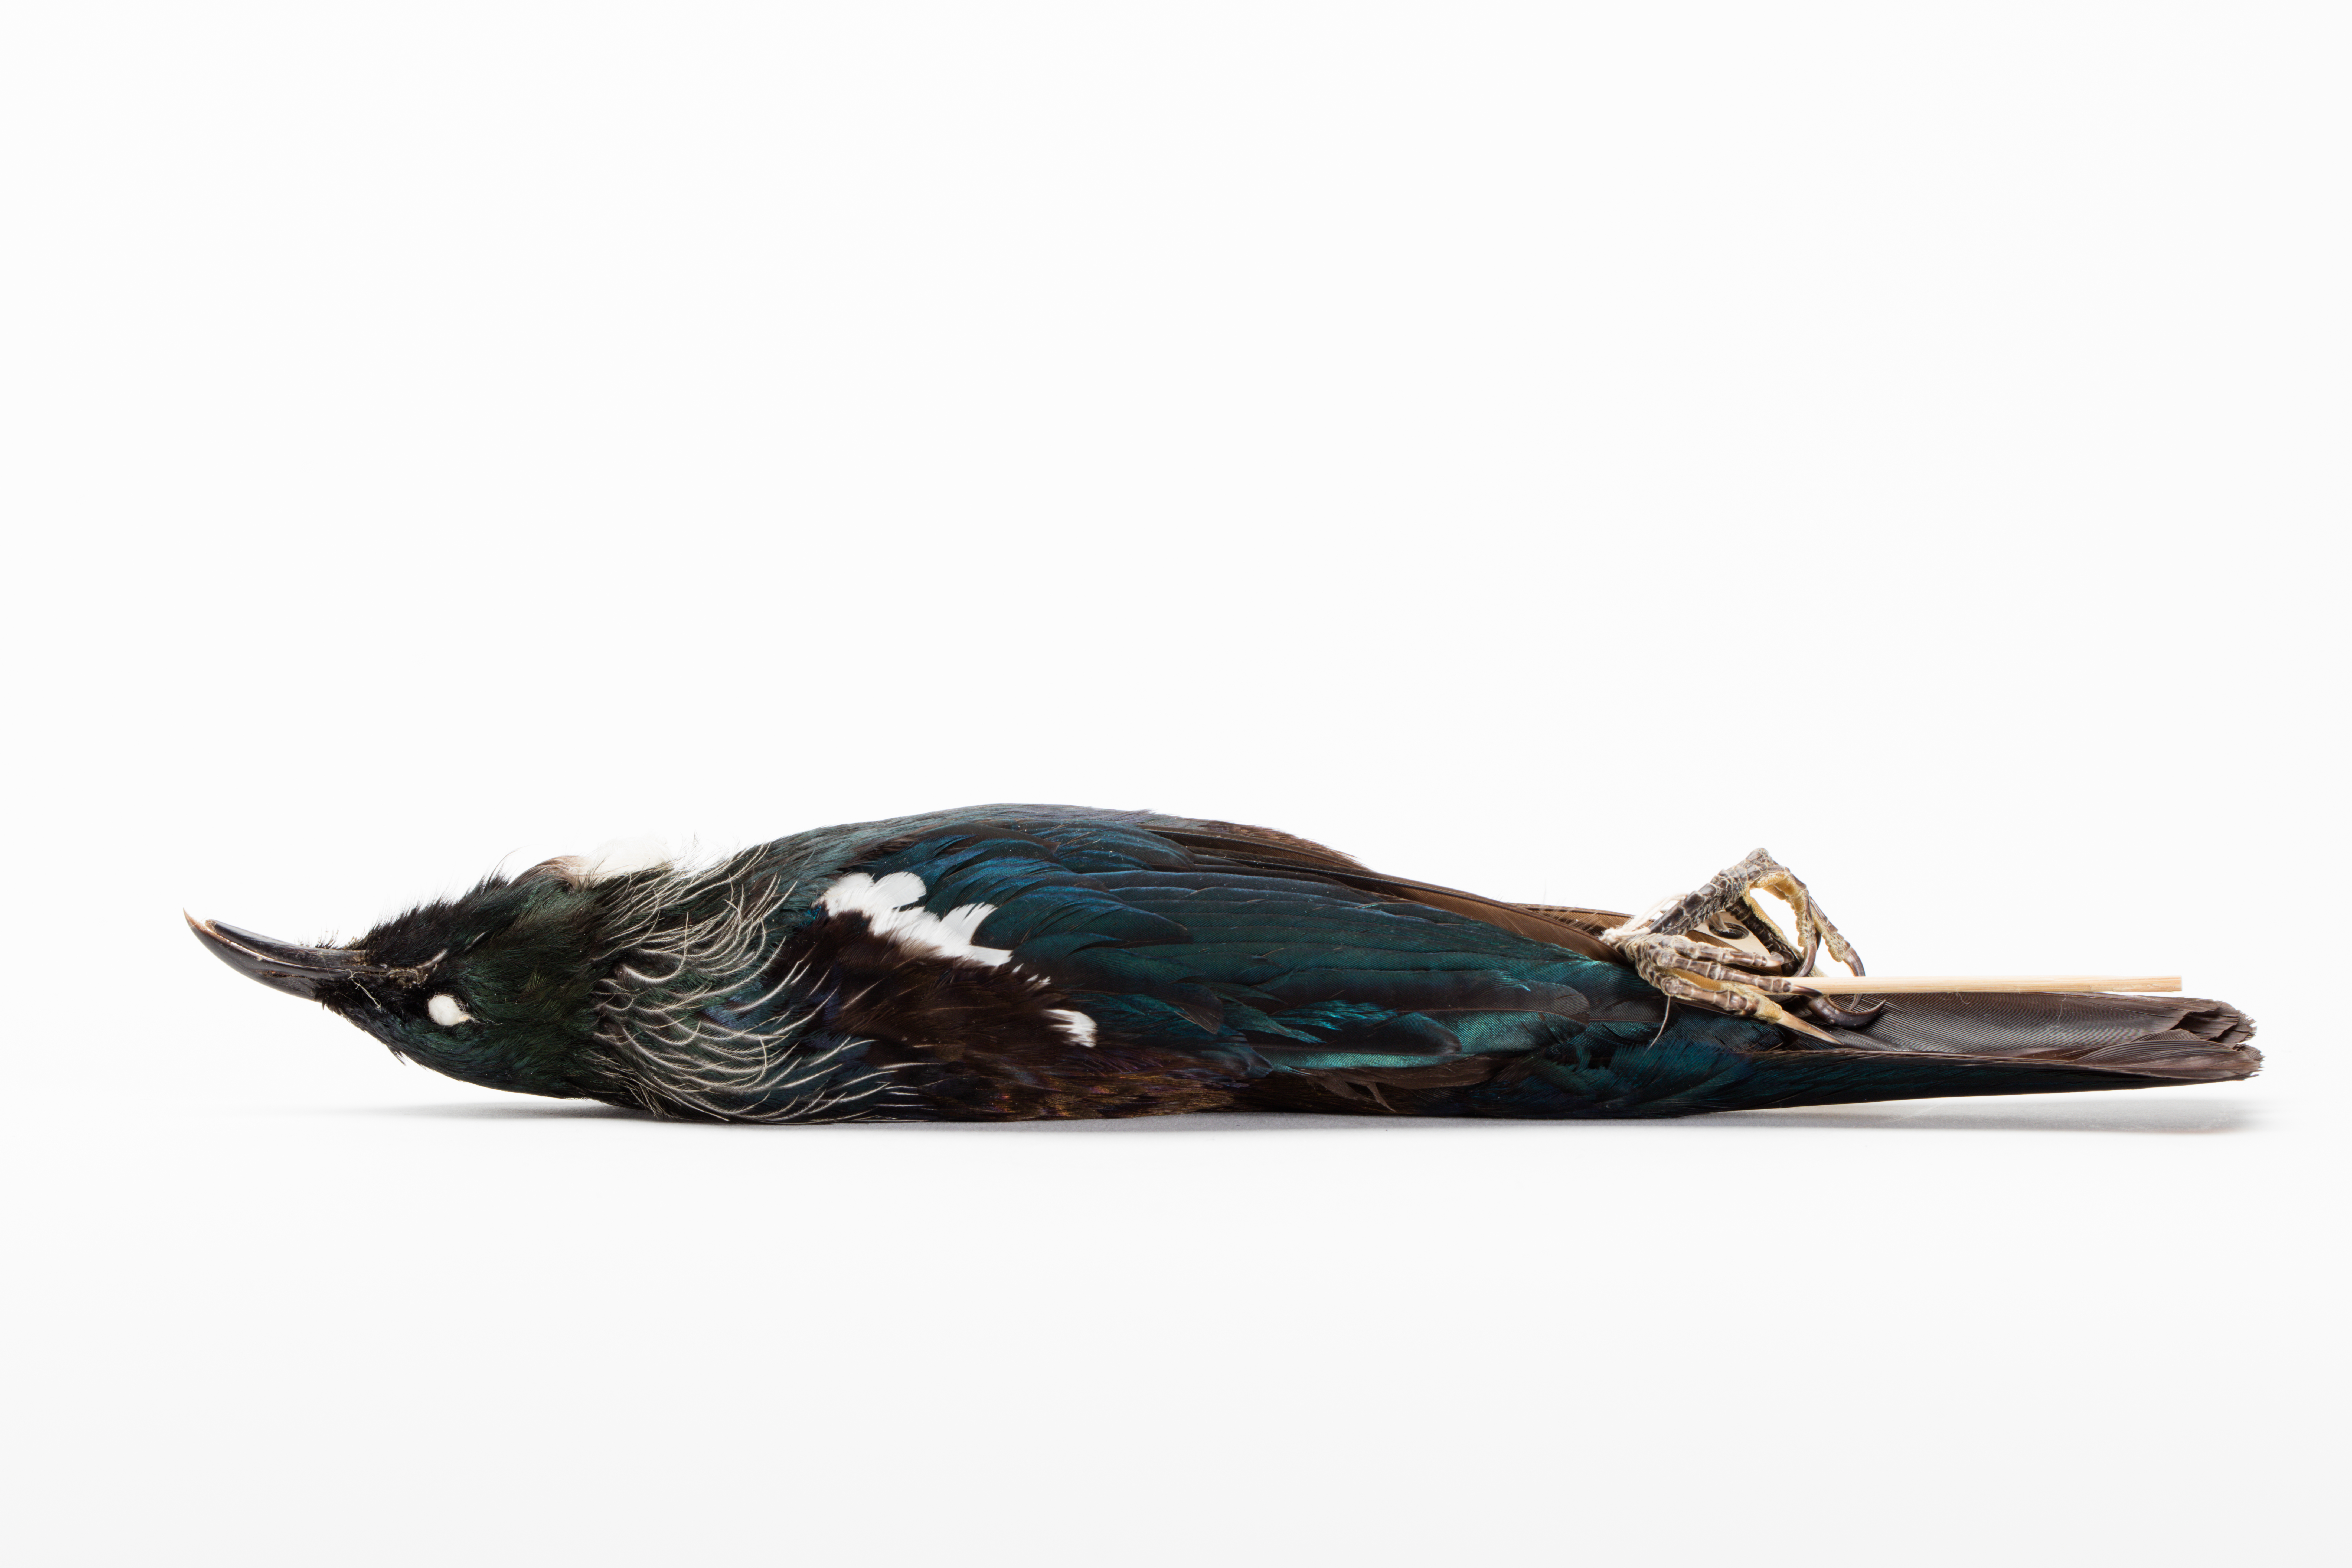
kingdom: Animalia
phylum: Chordata
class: Aves
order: Passeriformes
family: Meliphagidae
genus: Prosthemadera
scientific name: Prosthemadera novaeseelandiae
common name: Tui
